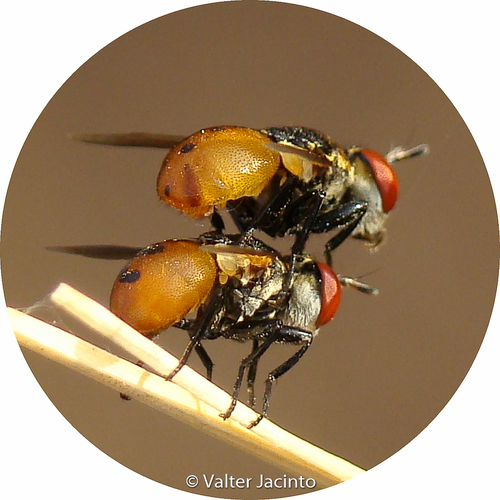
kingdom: Animalia
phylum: Arthropoda
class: Insecta
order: Diptera
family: Tachinidae
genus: Gymnosoma
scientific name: Gymnosoma
